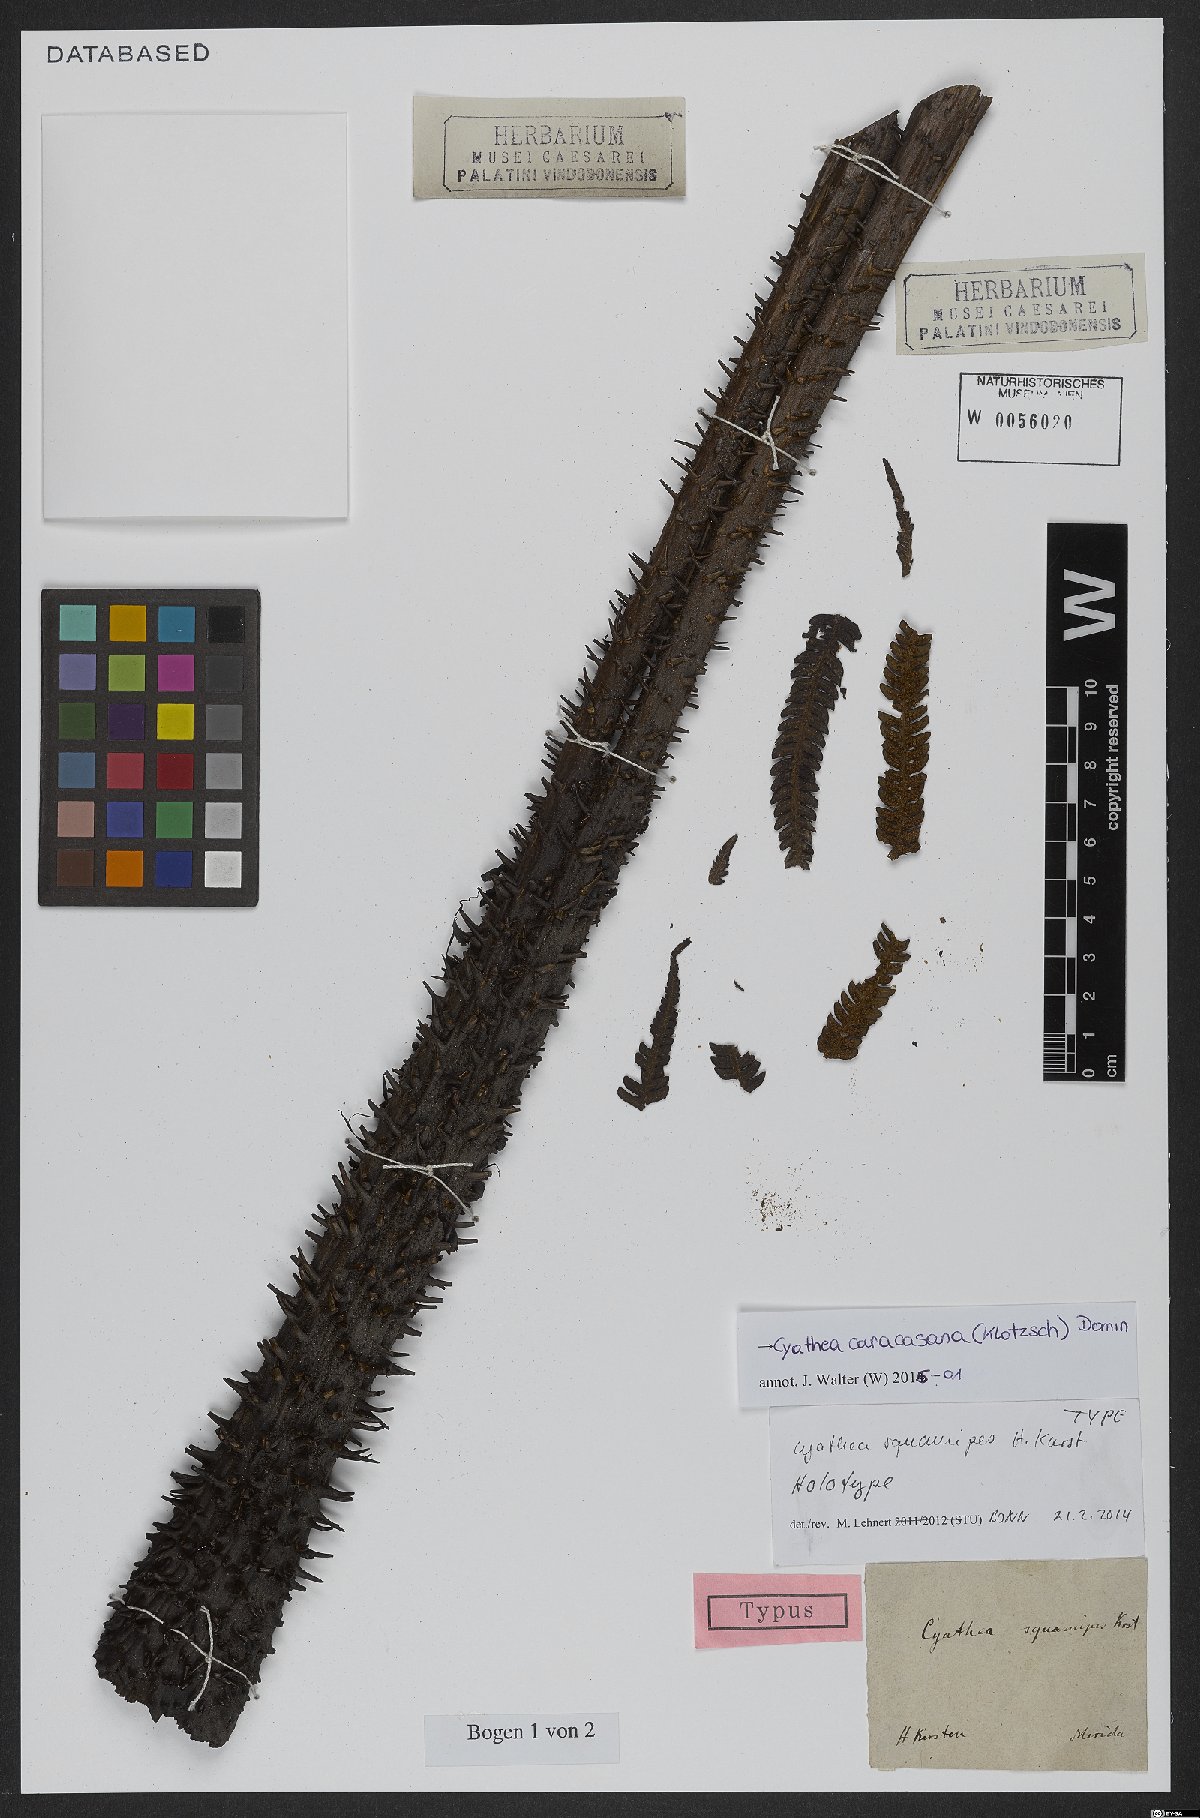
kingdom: Plantae
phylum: Tracheophyta
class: Polypodiopsida
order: Cyatheales
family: Cyatheaceae
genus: Cyathea
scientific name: Cyathea caracasana
